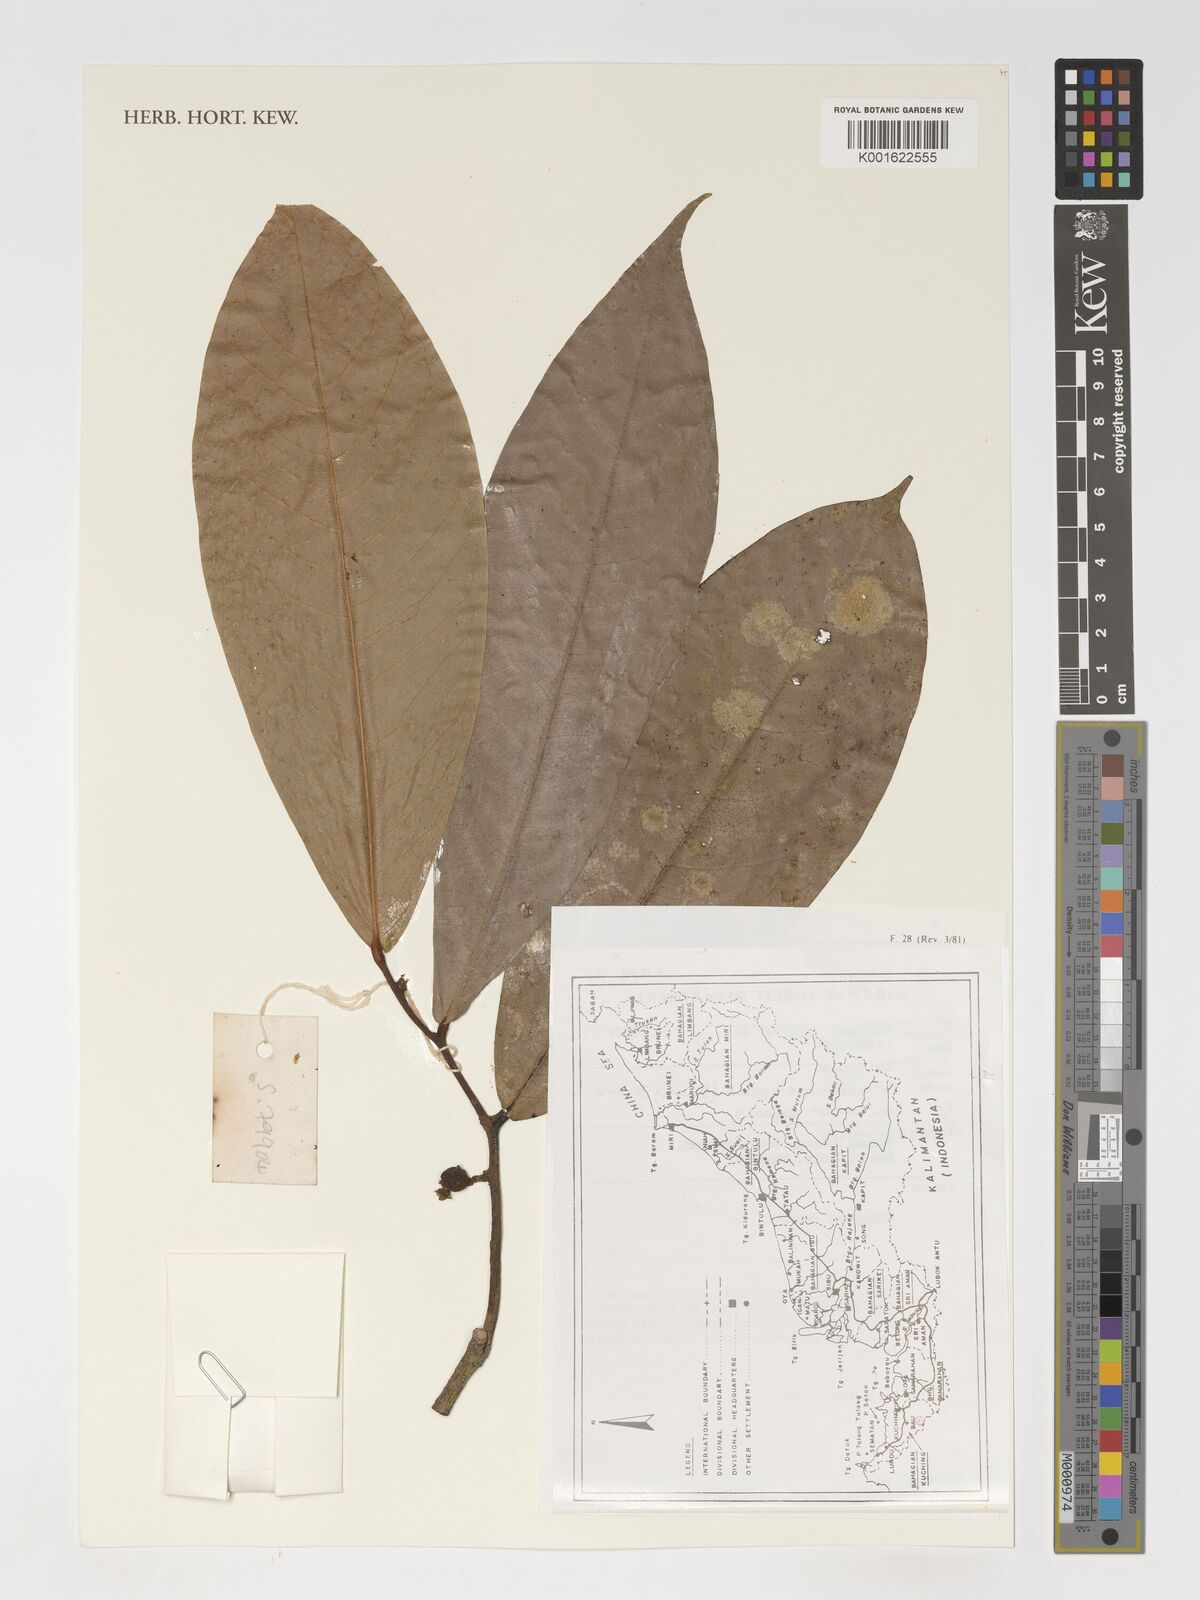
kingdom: Plantae
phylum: Tracheophyta
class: Magnoliopsida
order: Magnoliales
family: Annonaceae
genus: Polyalthia
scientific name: Polyalthia elliptica
